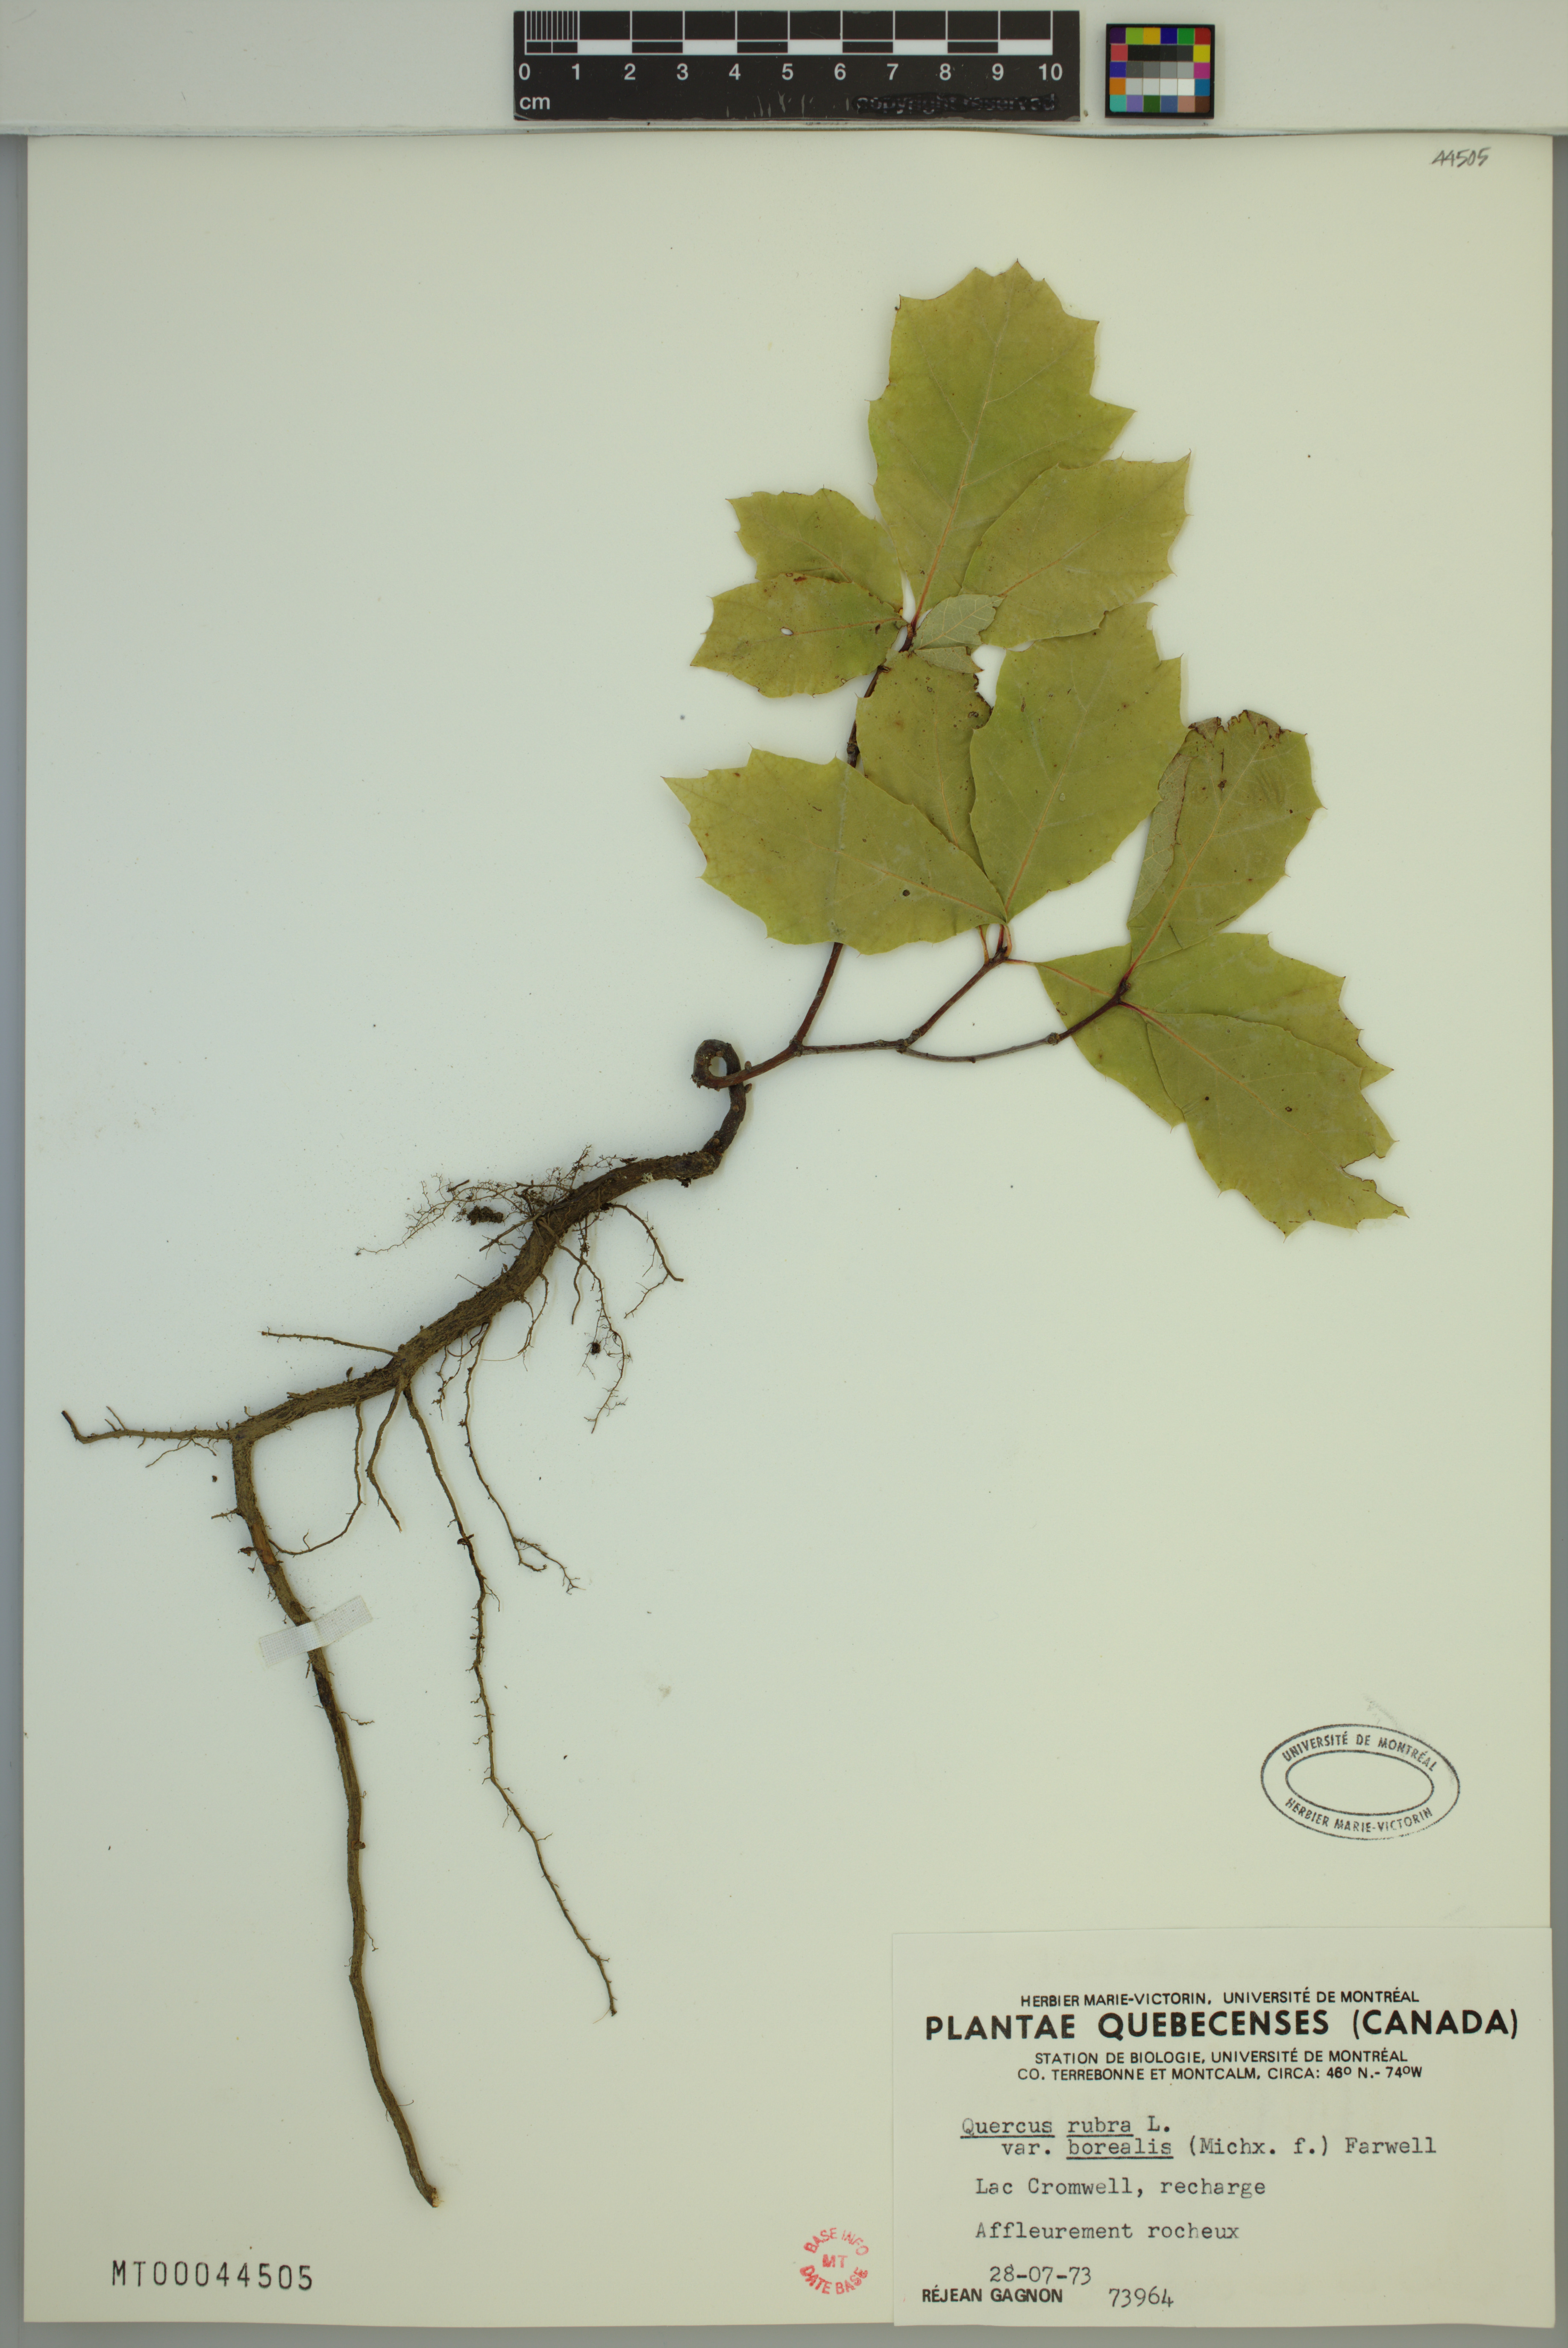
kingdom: Plantae
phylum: Tracheophyta
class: Magnoliopsida
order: Fagales
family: Fagaceae
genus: Quercus
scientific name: Quercus rubra
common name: Red oak
